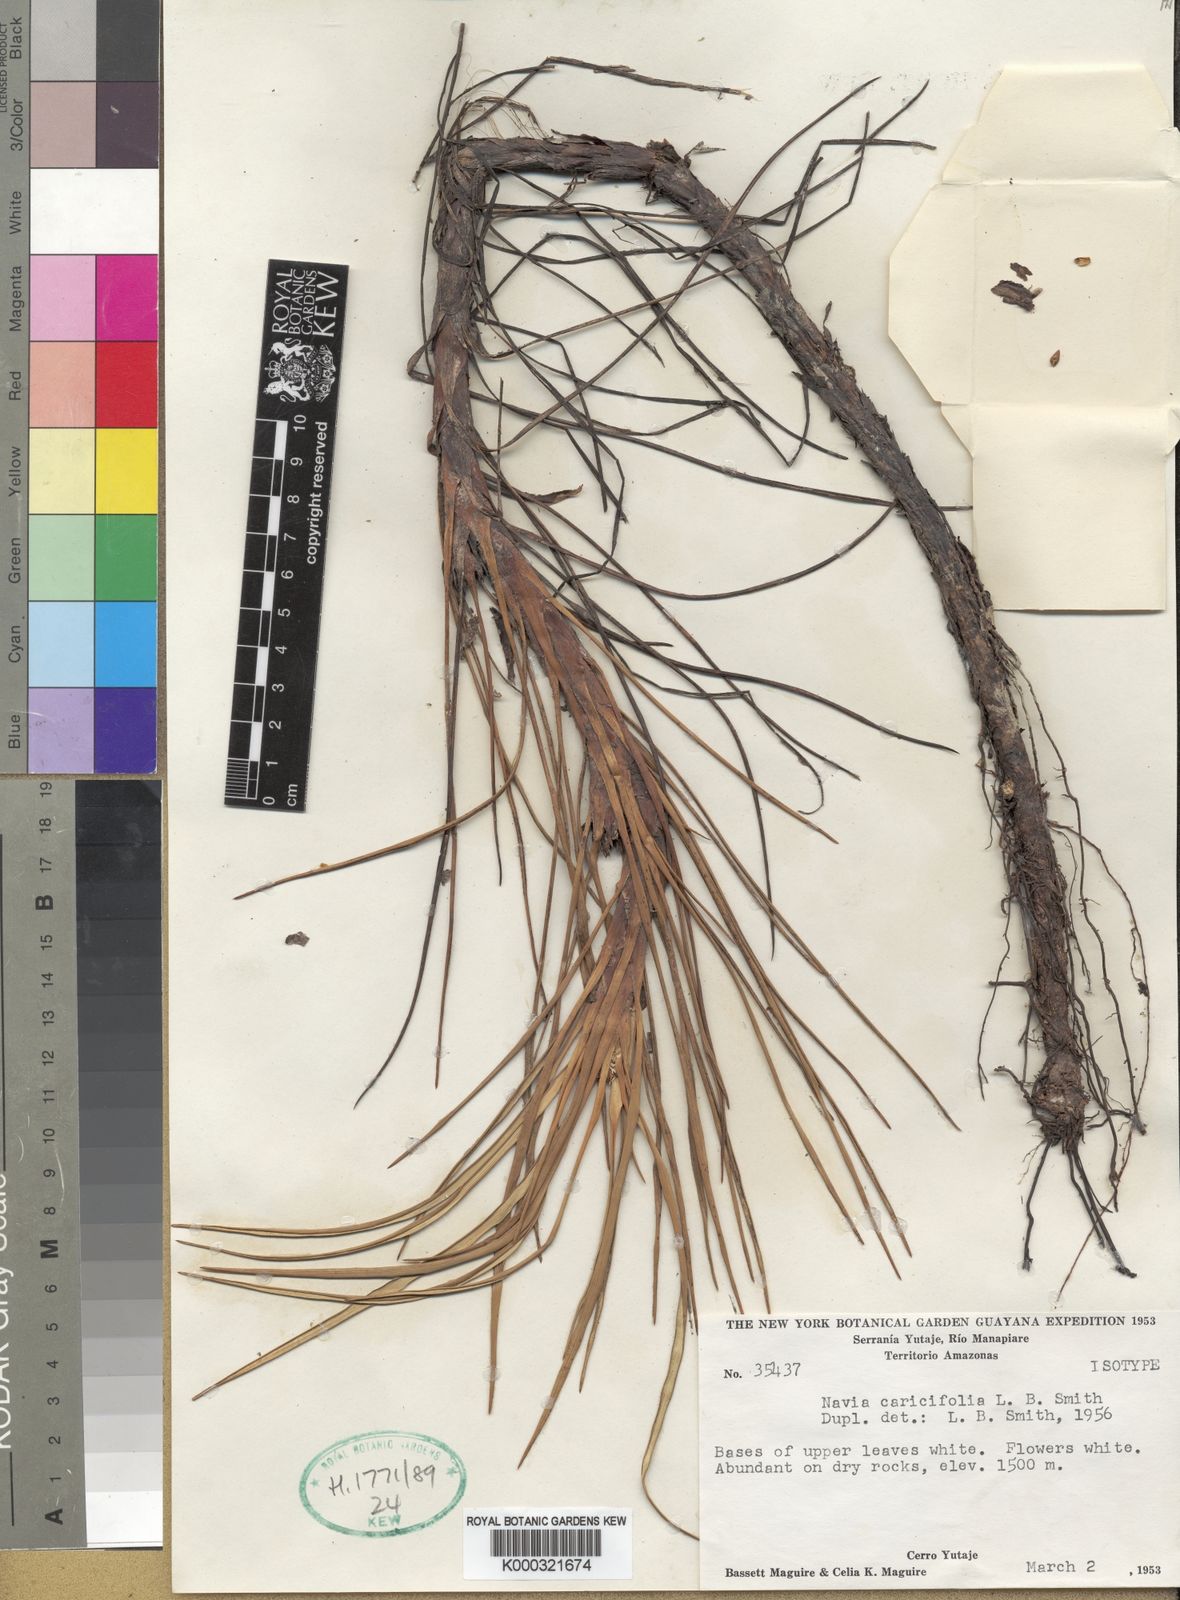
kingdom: Plantae
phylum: Tracheophyta
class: Liliopsida
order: Poales
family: Bromeliaceae
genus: Navia
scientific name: Navia caricifolia
